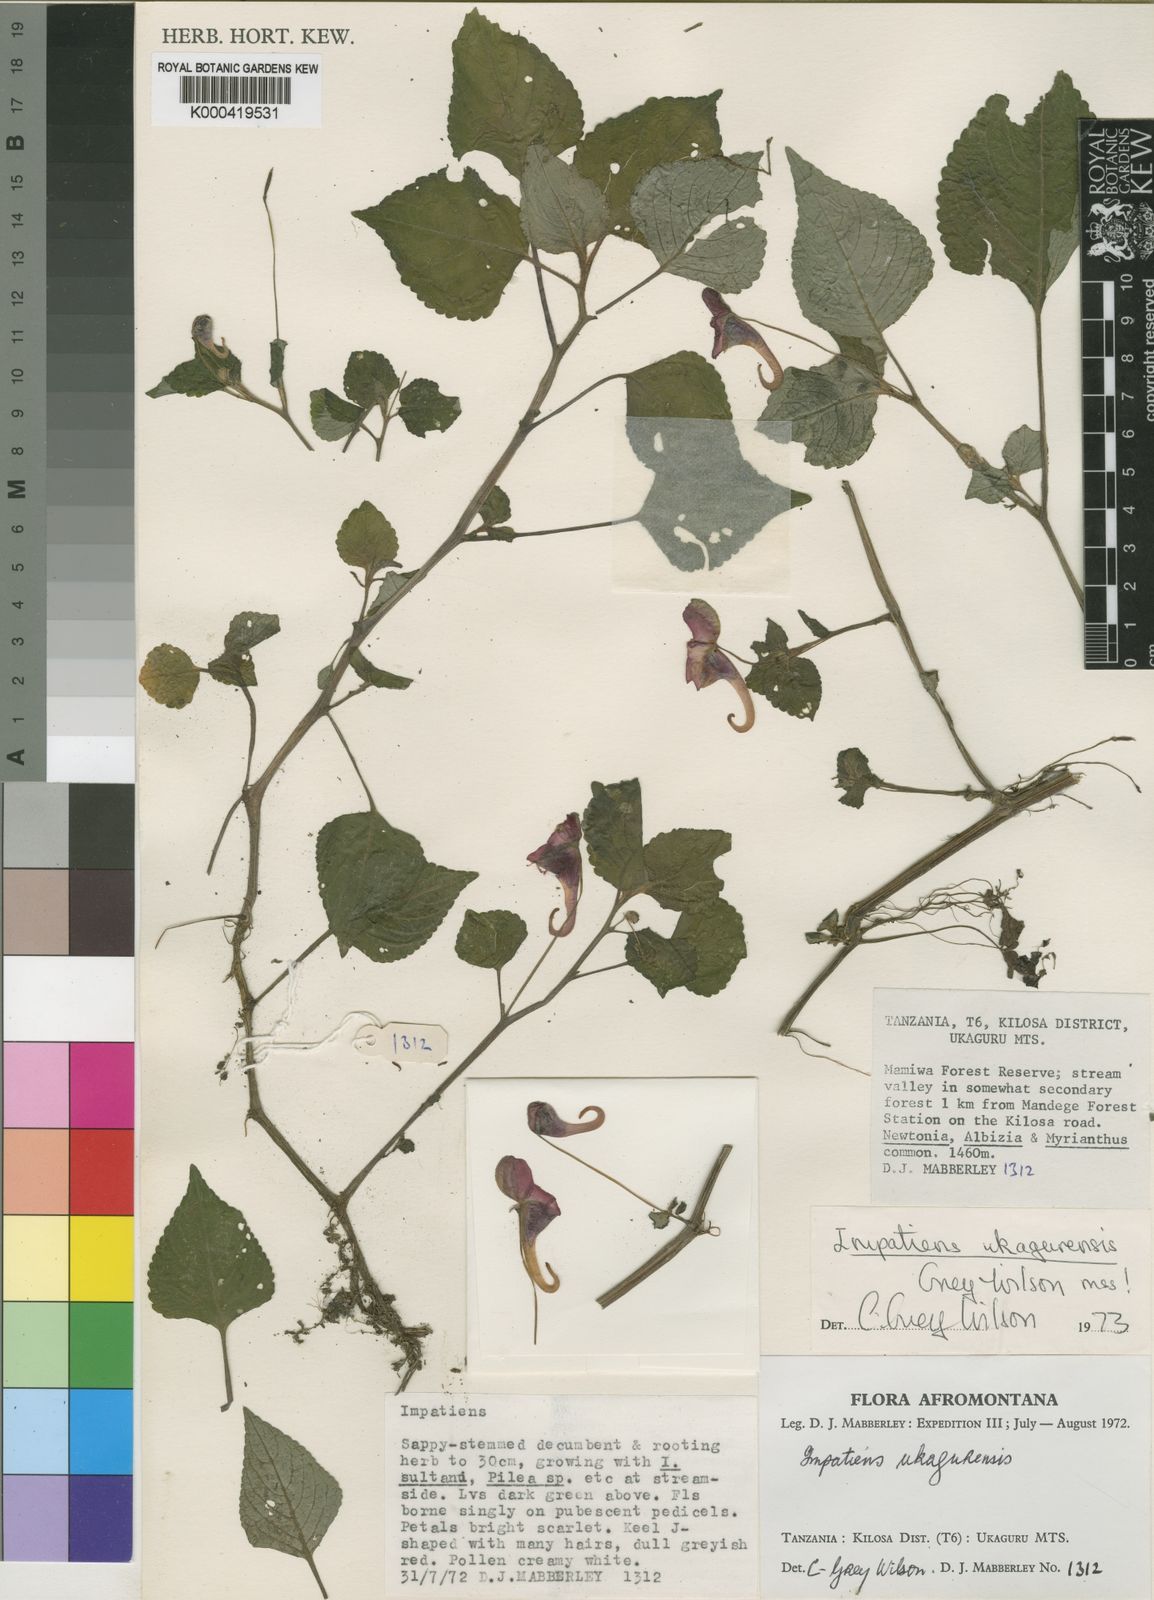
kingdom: Plantae
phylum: Tracheophyta
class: Magnoliopsida
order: Ericales
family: Balsaminaceae
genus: Impatiens
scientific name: Impatiens ukagurensis
